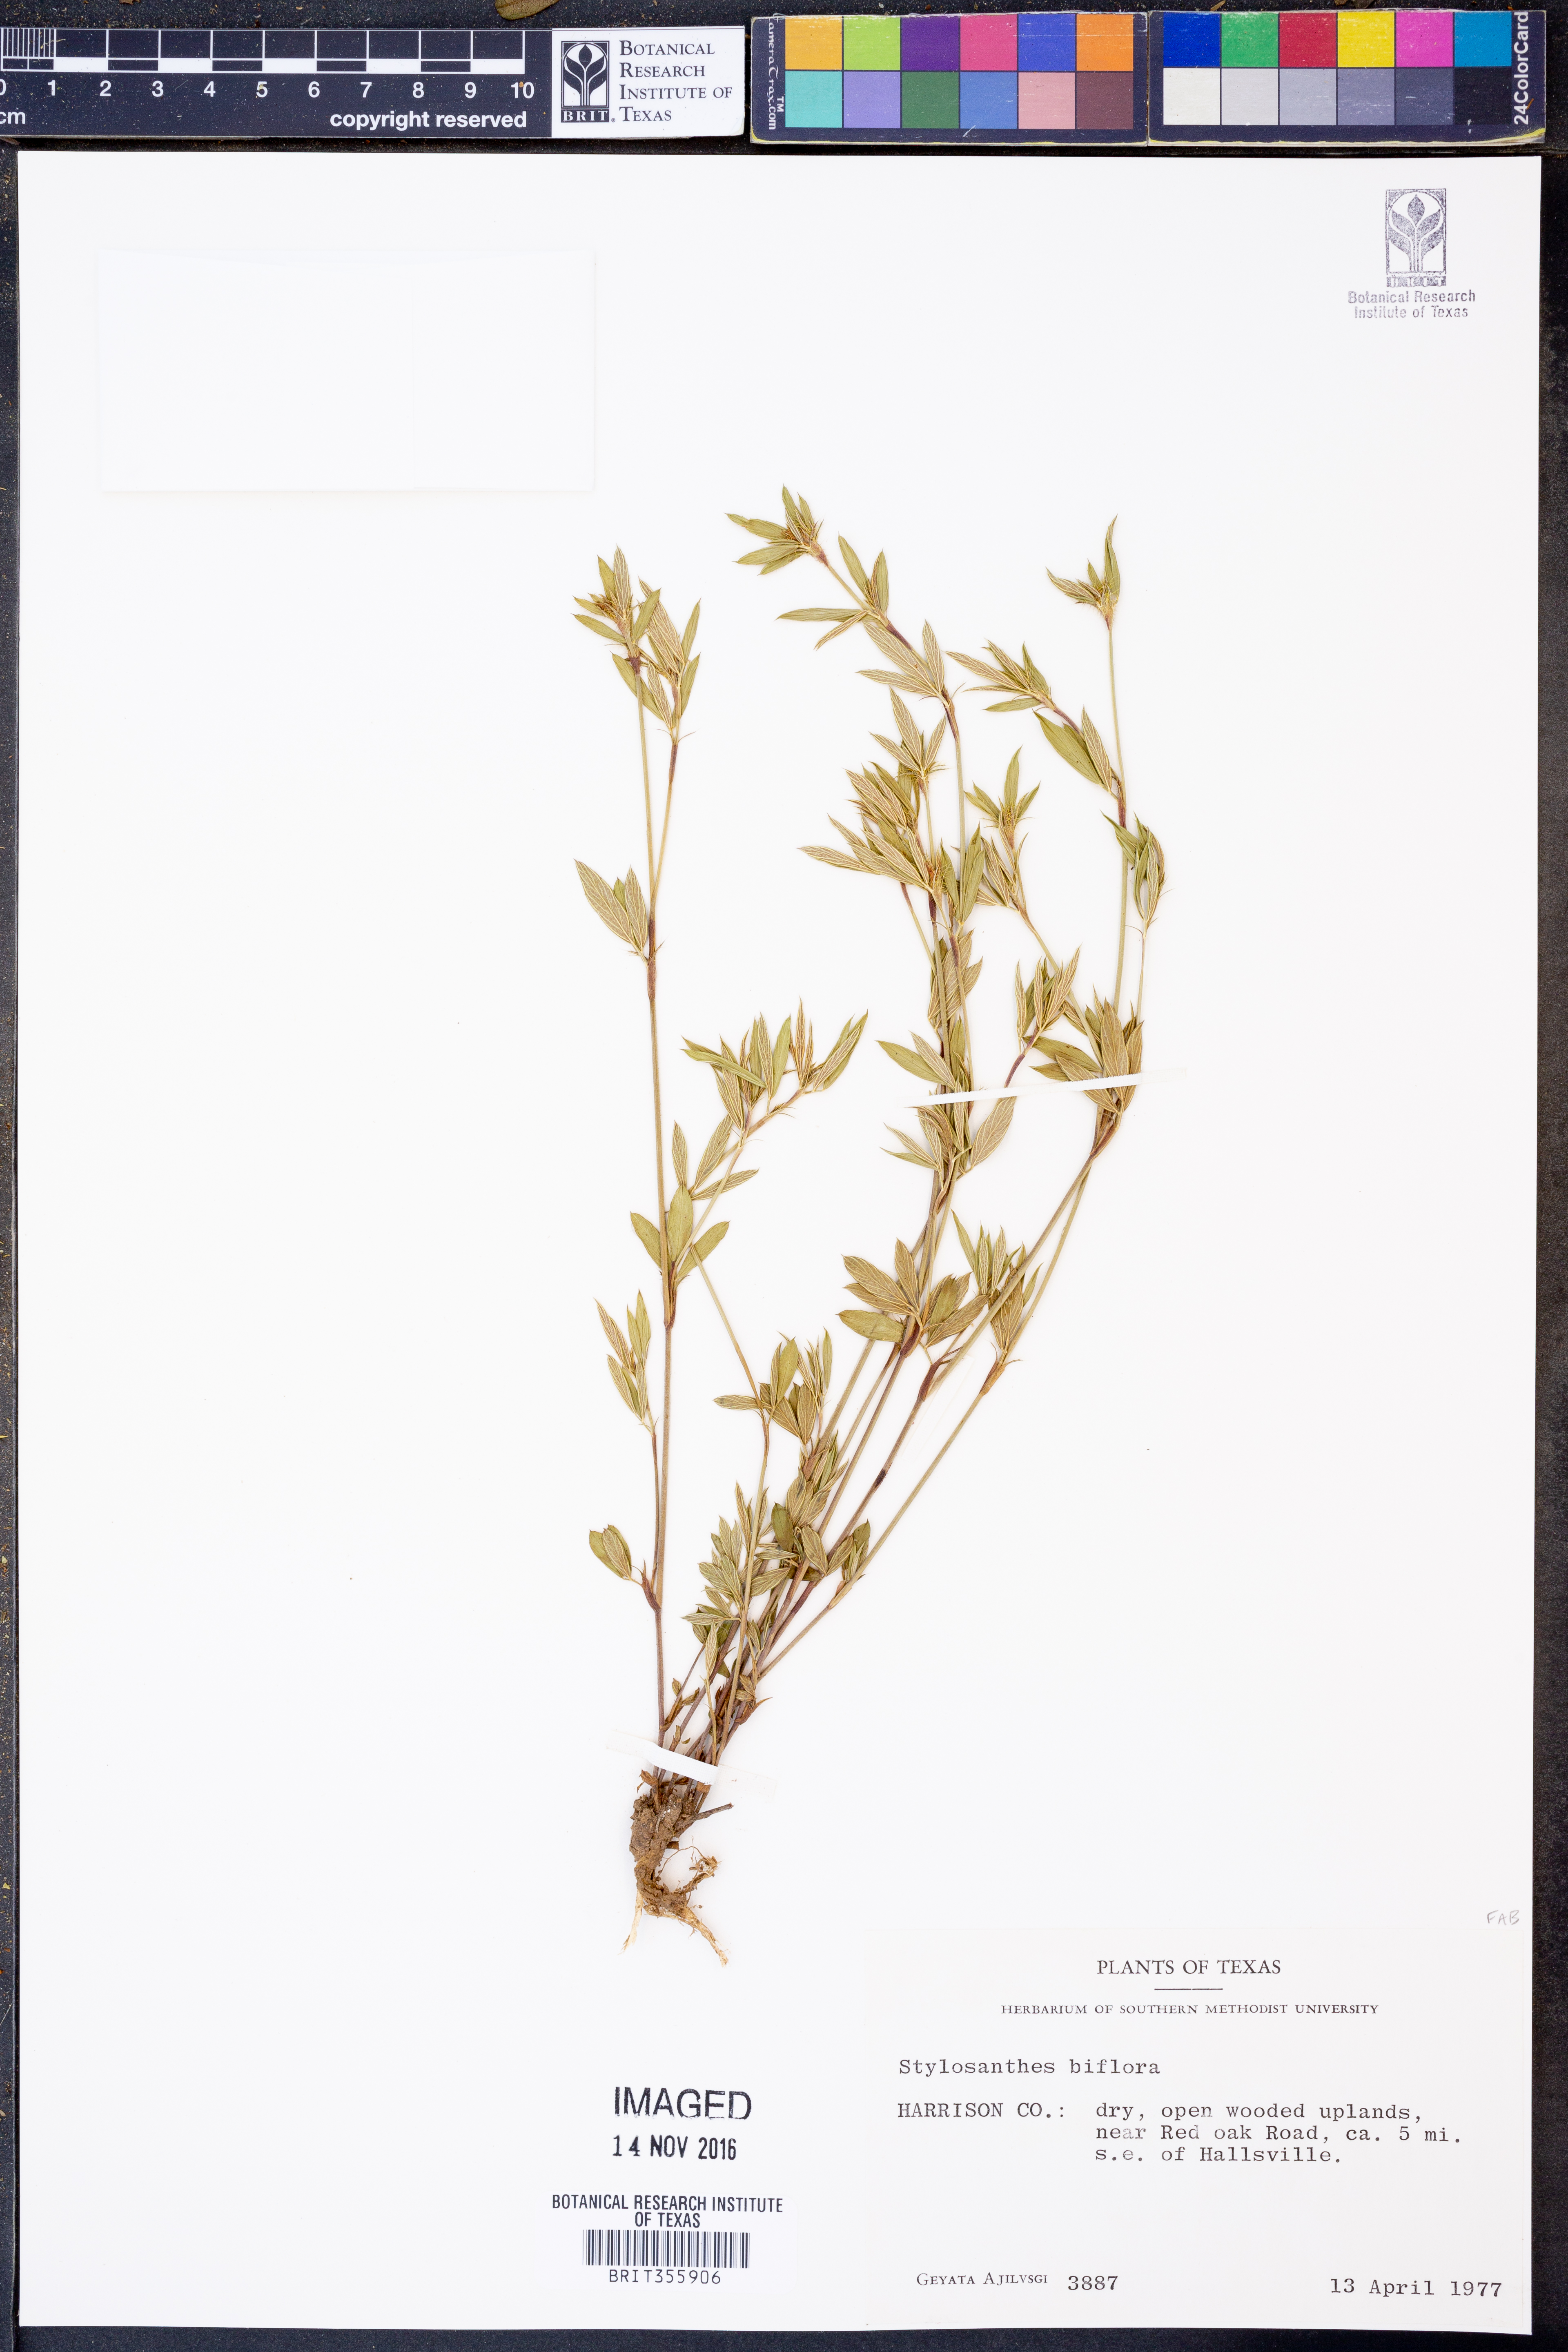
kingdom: Plantae
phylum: Tracheophyta
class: Magnoliopsida
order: Fabales
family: Fabaceae
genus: Stylosanthes
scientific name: Stylosanthes biflora
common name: Two-flower pencil-flower
